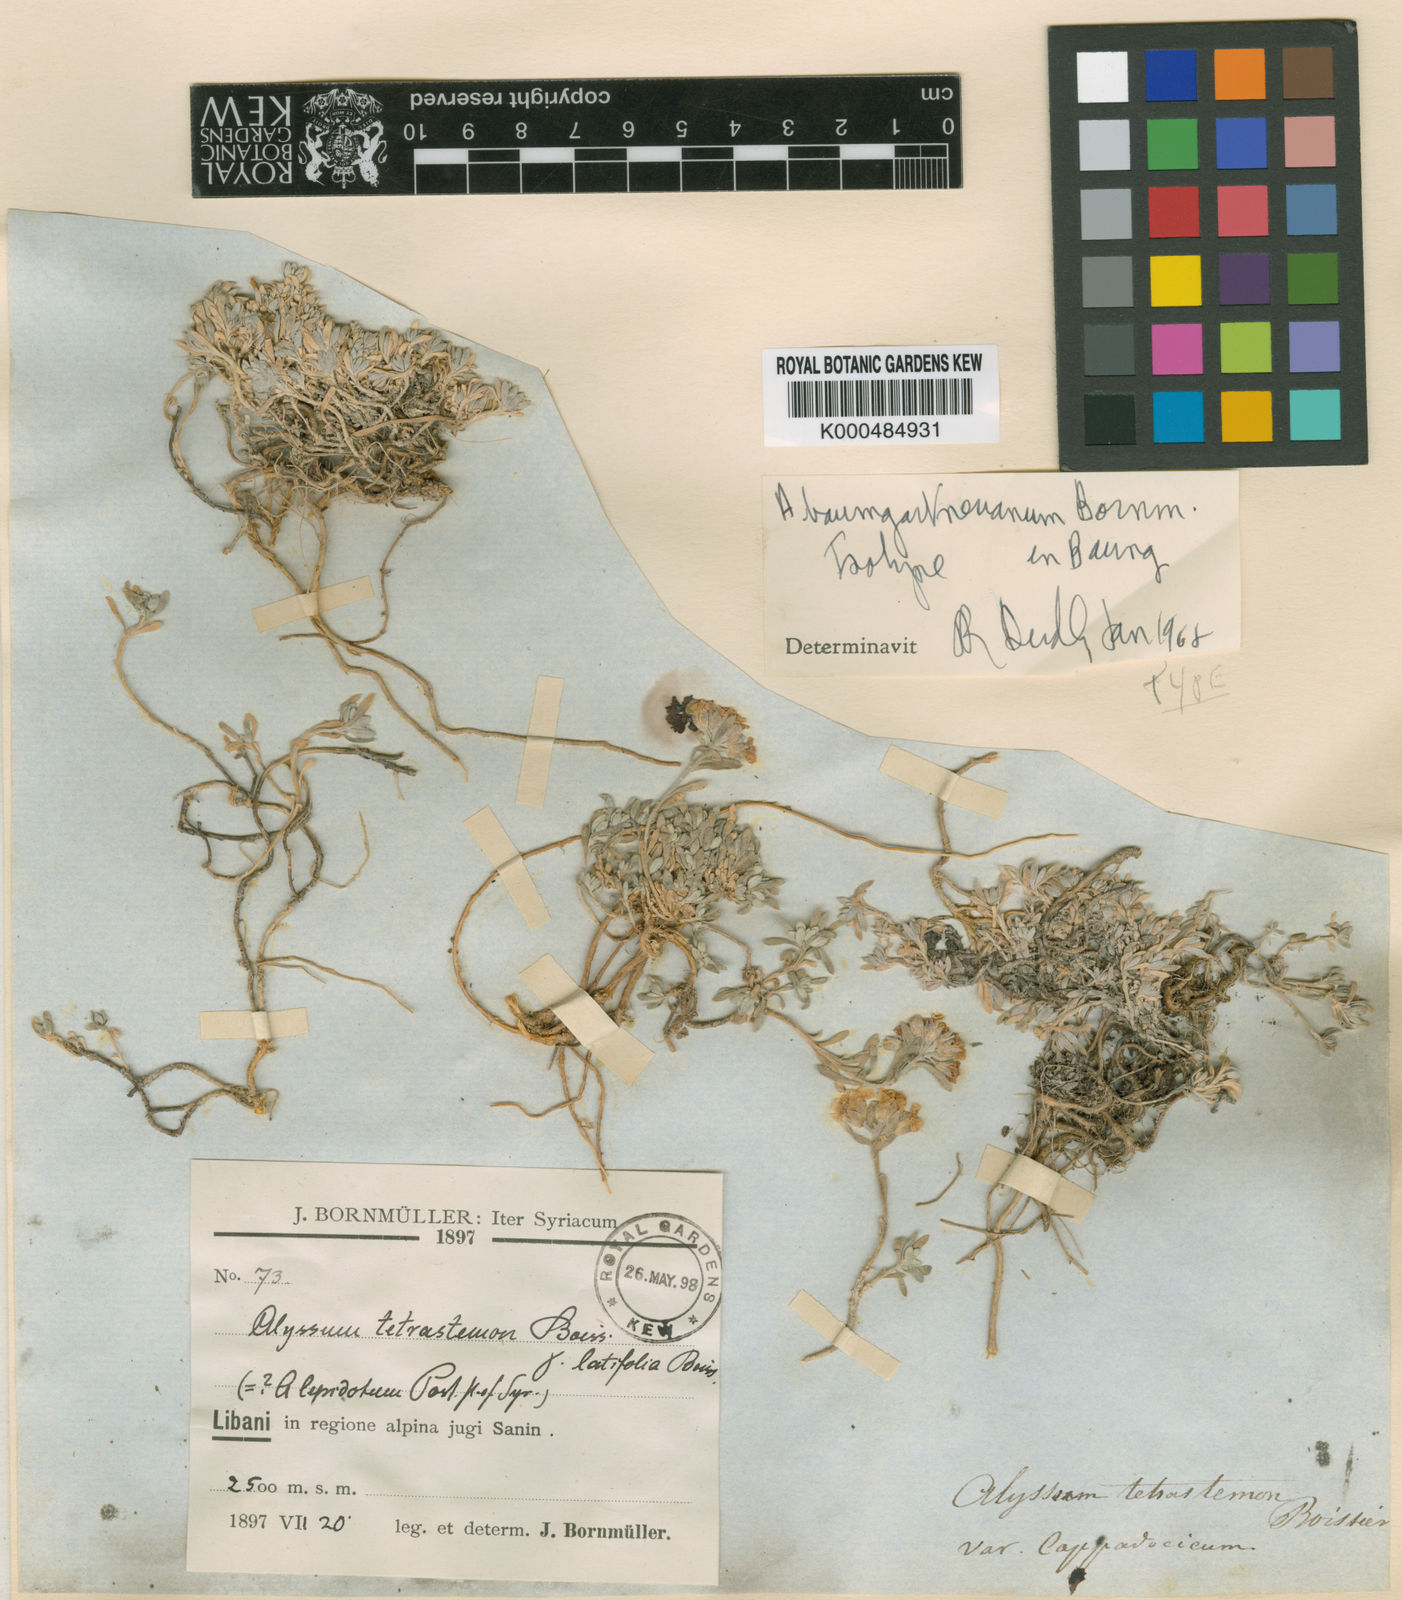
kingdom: Plantae
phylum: Tracheophyta
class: Magnoliopsida
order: Brassicales
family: Brassicaceae
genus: Alyssum
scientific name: Alyssum baumgartnerianum
